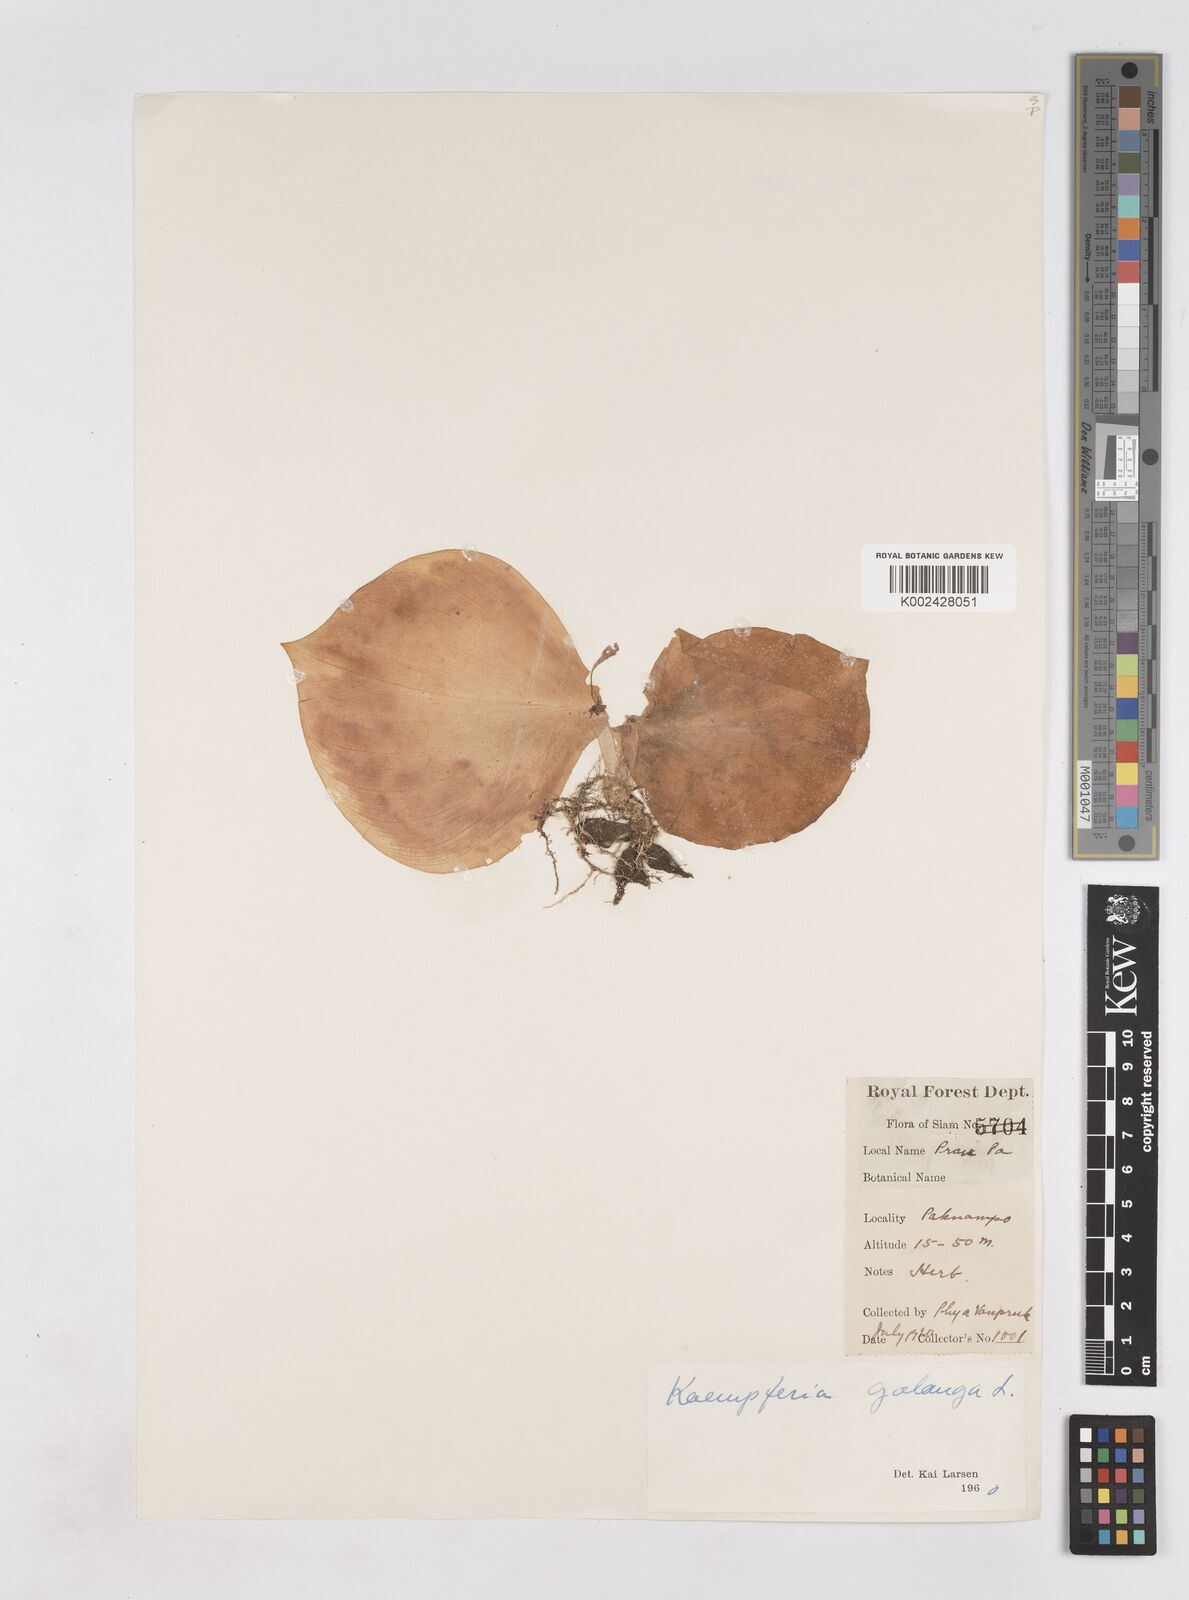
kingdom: Plantae
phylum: Tracheophyta
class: Liliopsida
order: Zingiberales
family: Zingiberaceae
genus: Kaempferia
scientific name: Kaempferia galanga
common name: Aromatic ginger
